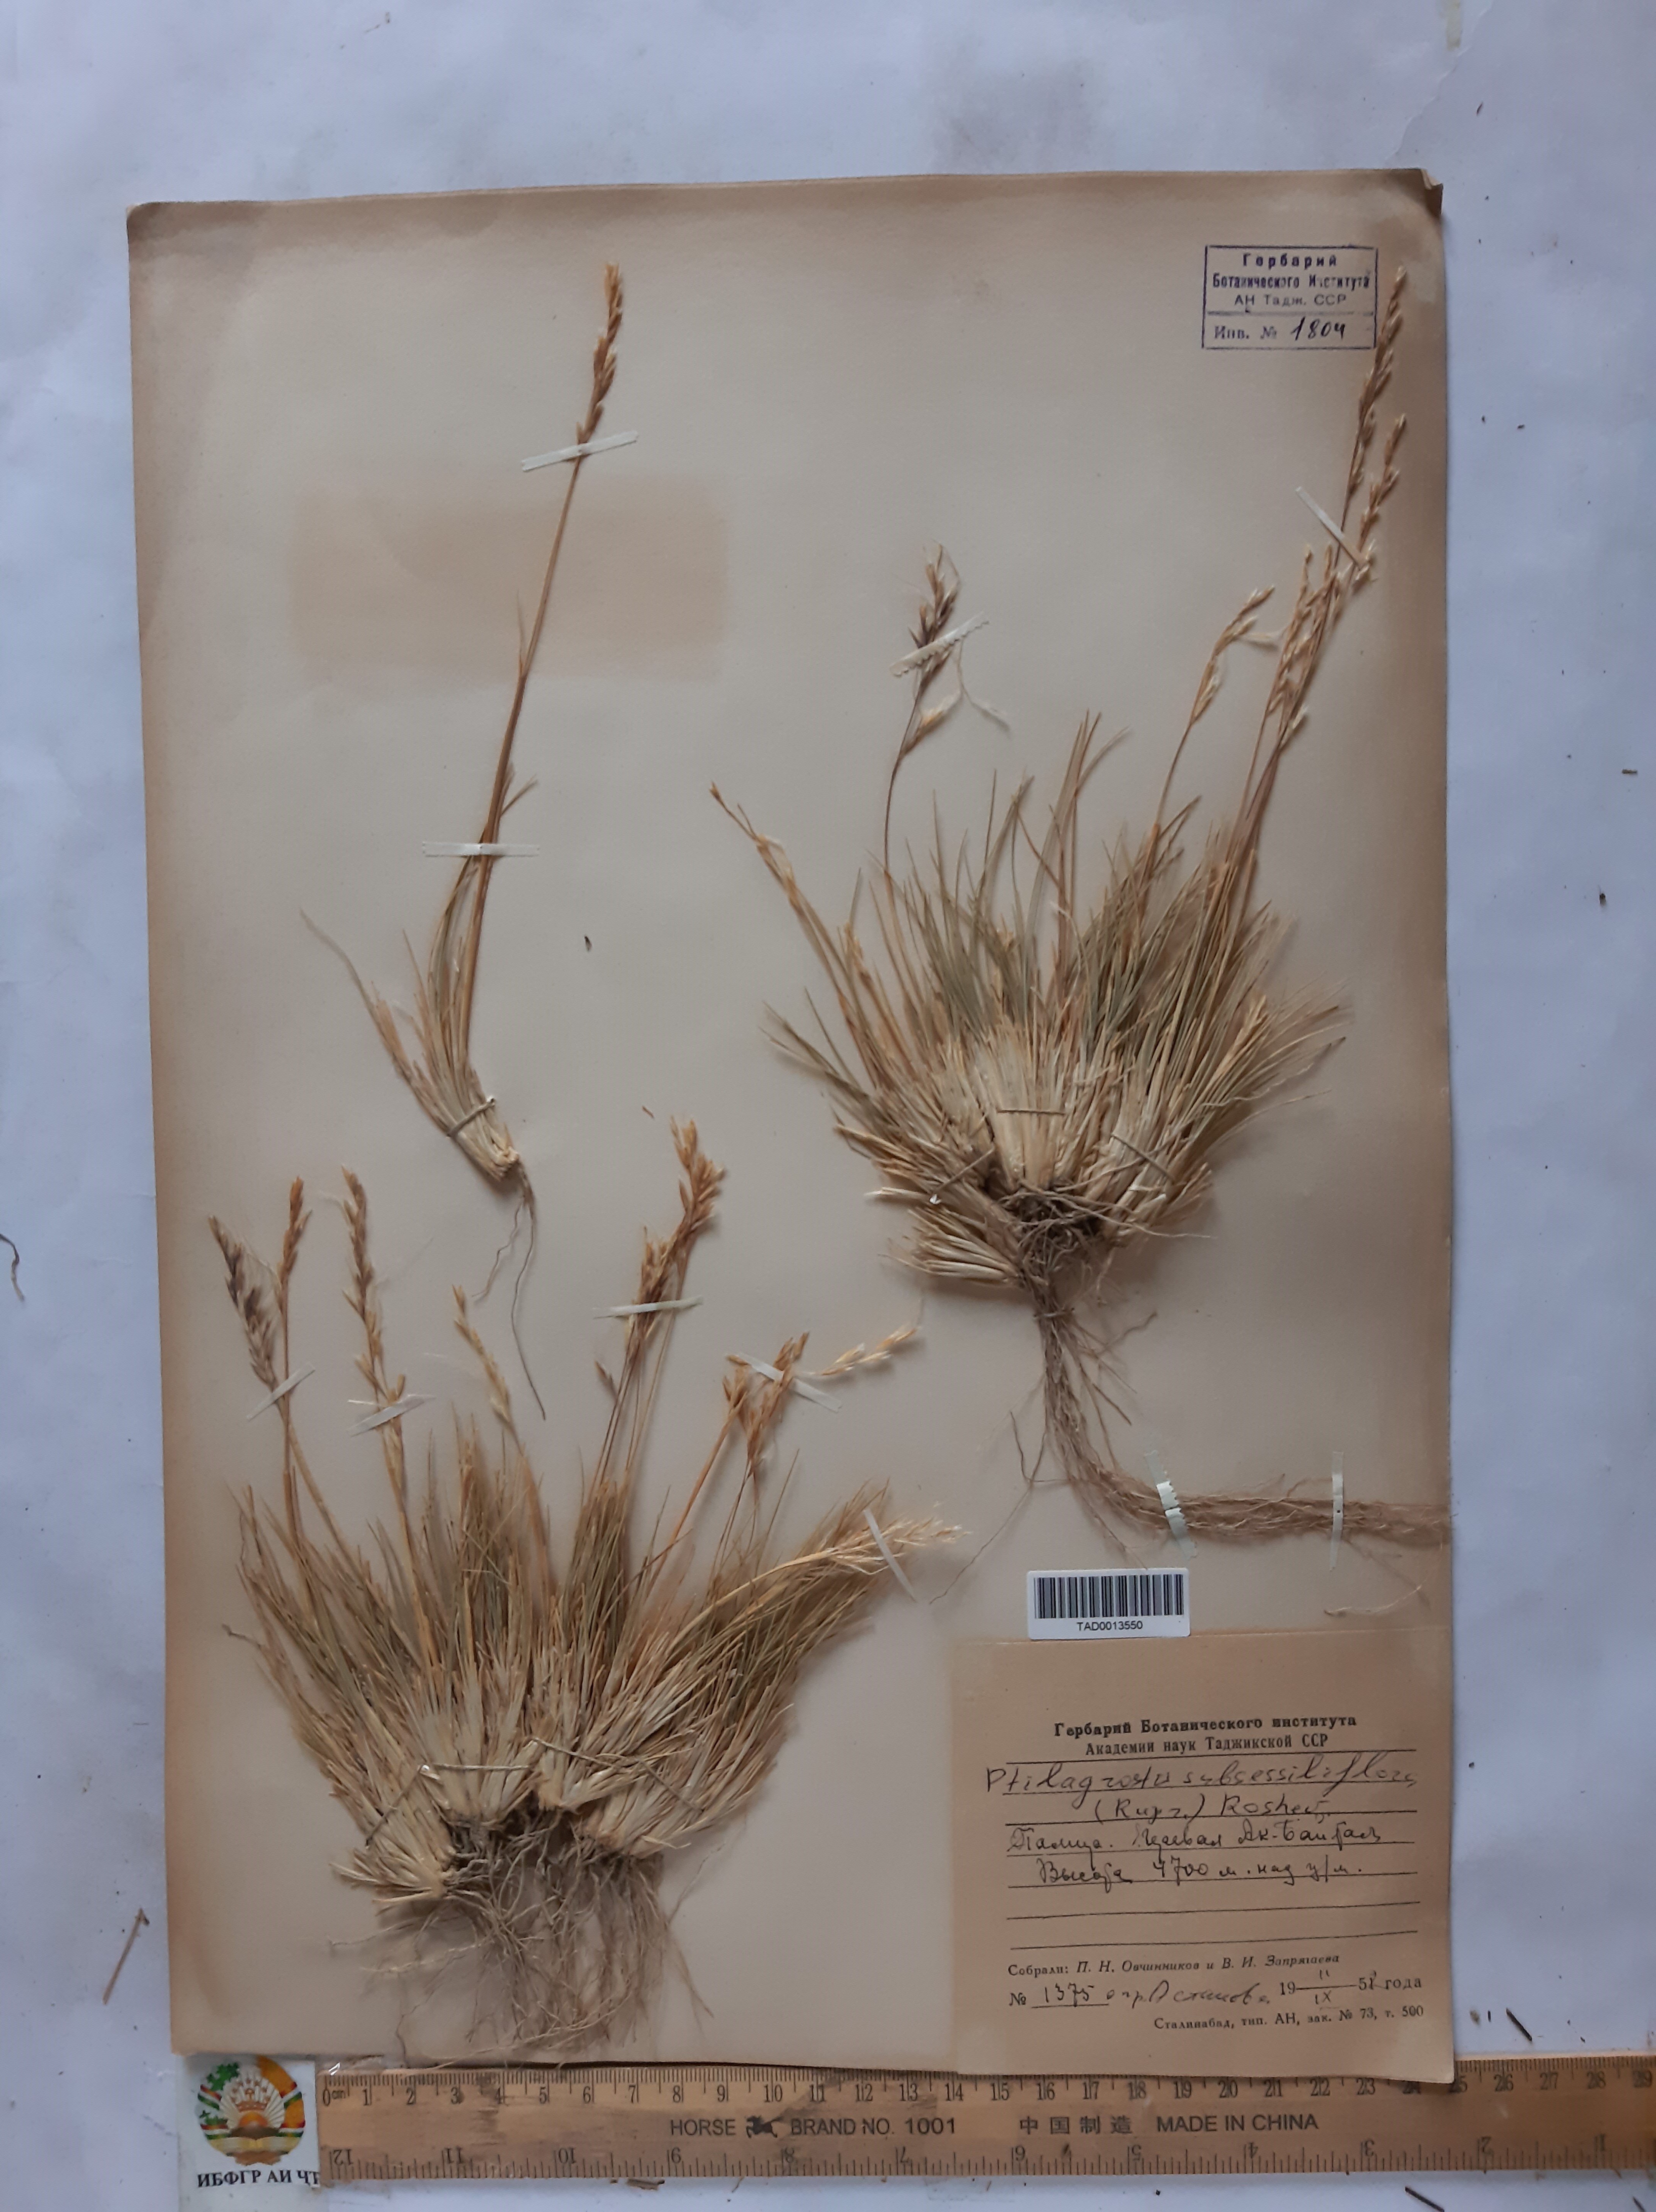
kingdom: Plantae
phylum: Tracheophyta
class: Liliopsida
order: Poales
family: Poaceae
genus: Stipa
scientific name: Stipa subsessiliflora
